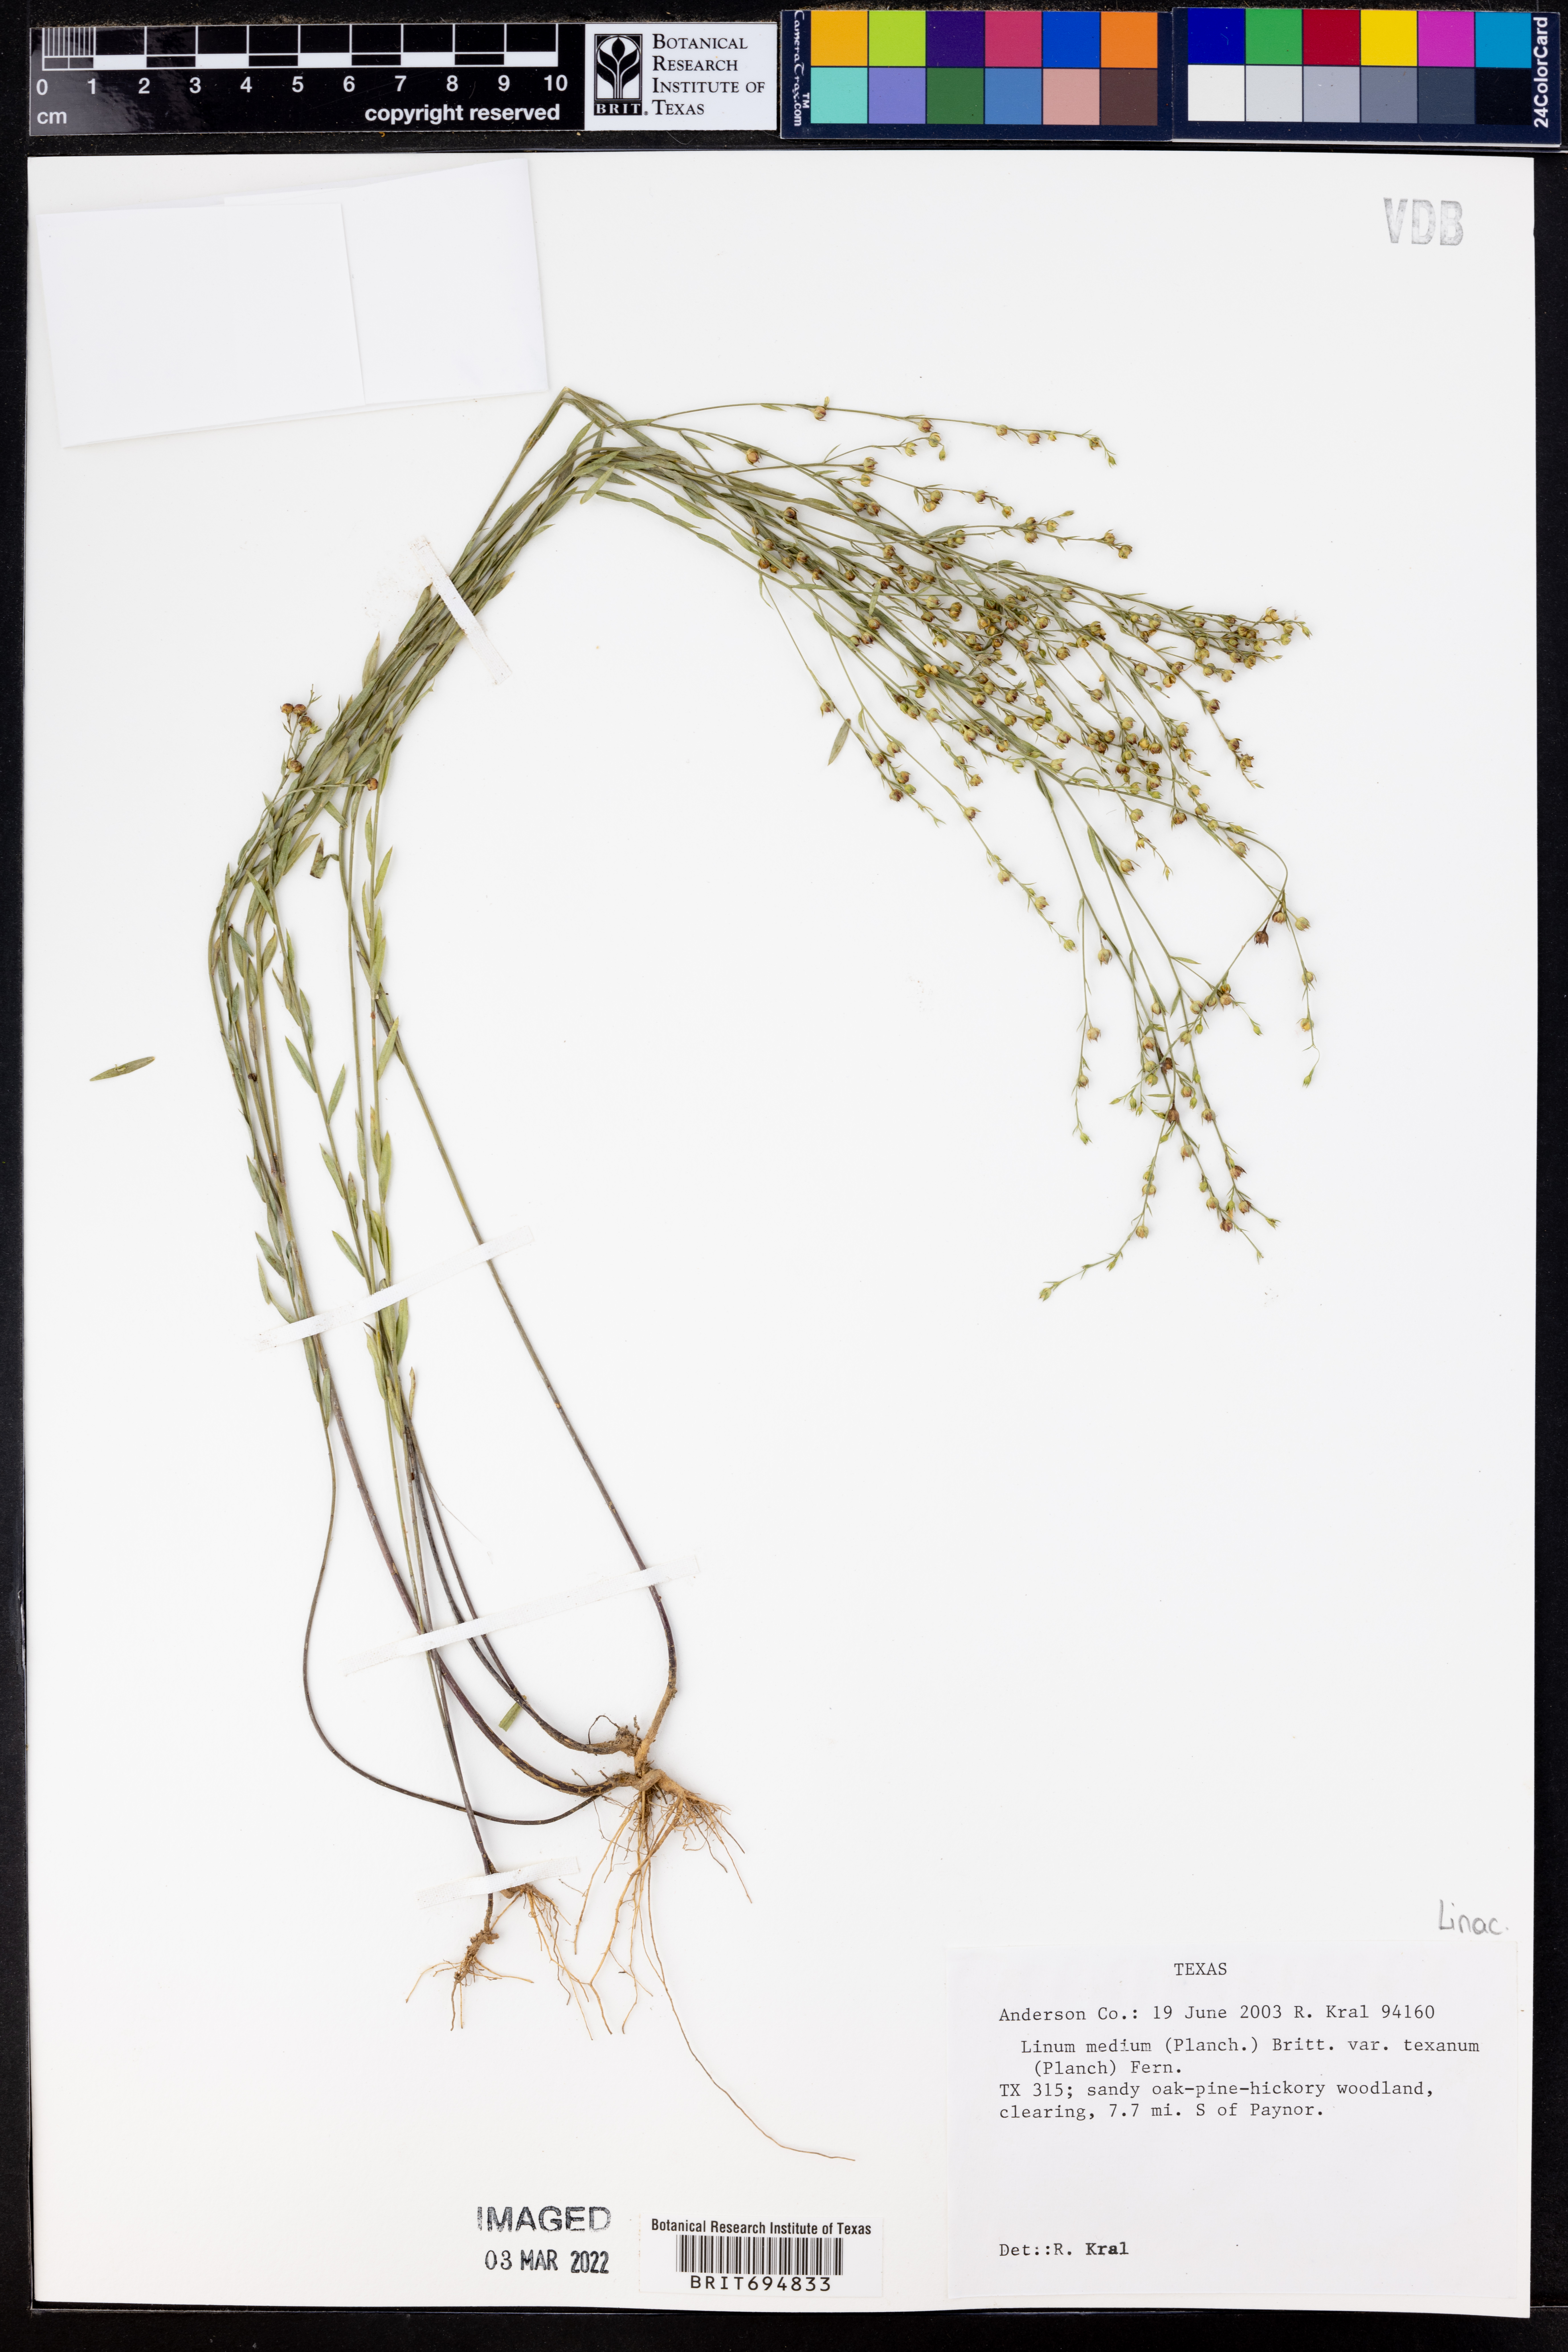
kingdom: Plantae
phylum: Tracheophyta
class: Magnoliopsida
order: Malpighiales
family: Linaceae
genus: Linum
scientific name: Linum medium
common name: Stiff yellow flax
